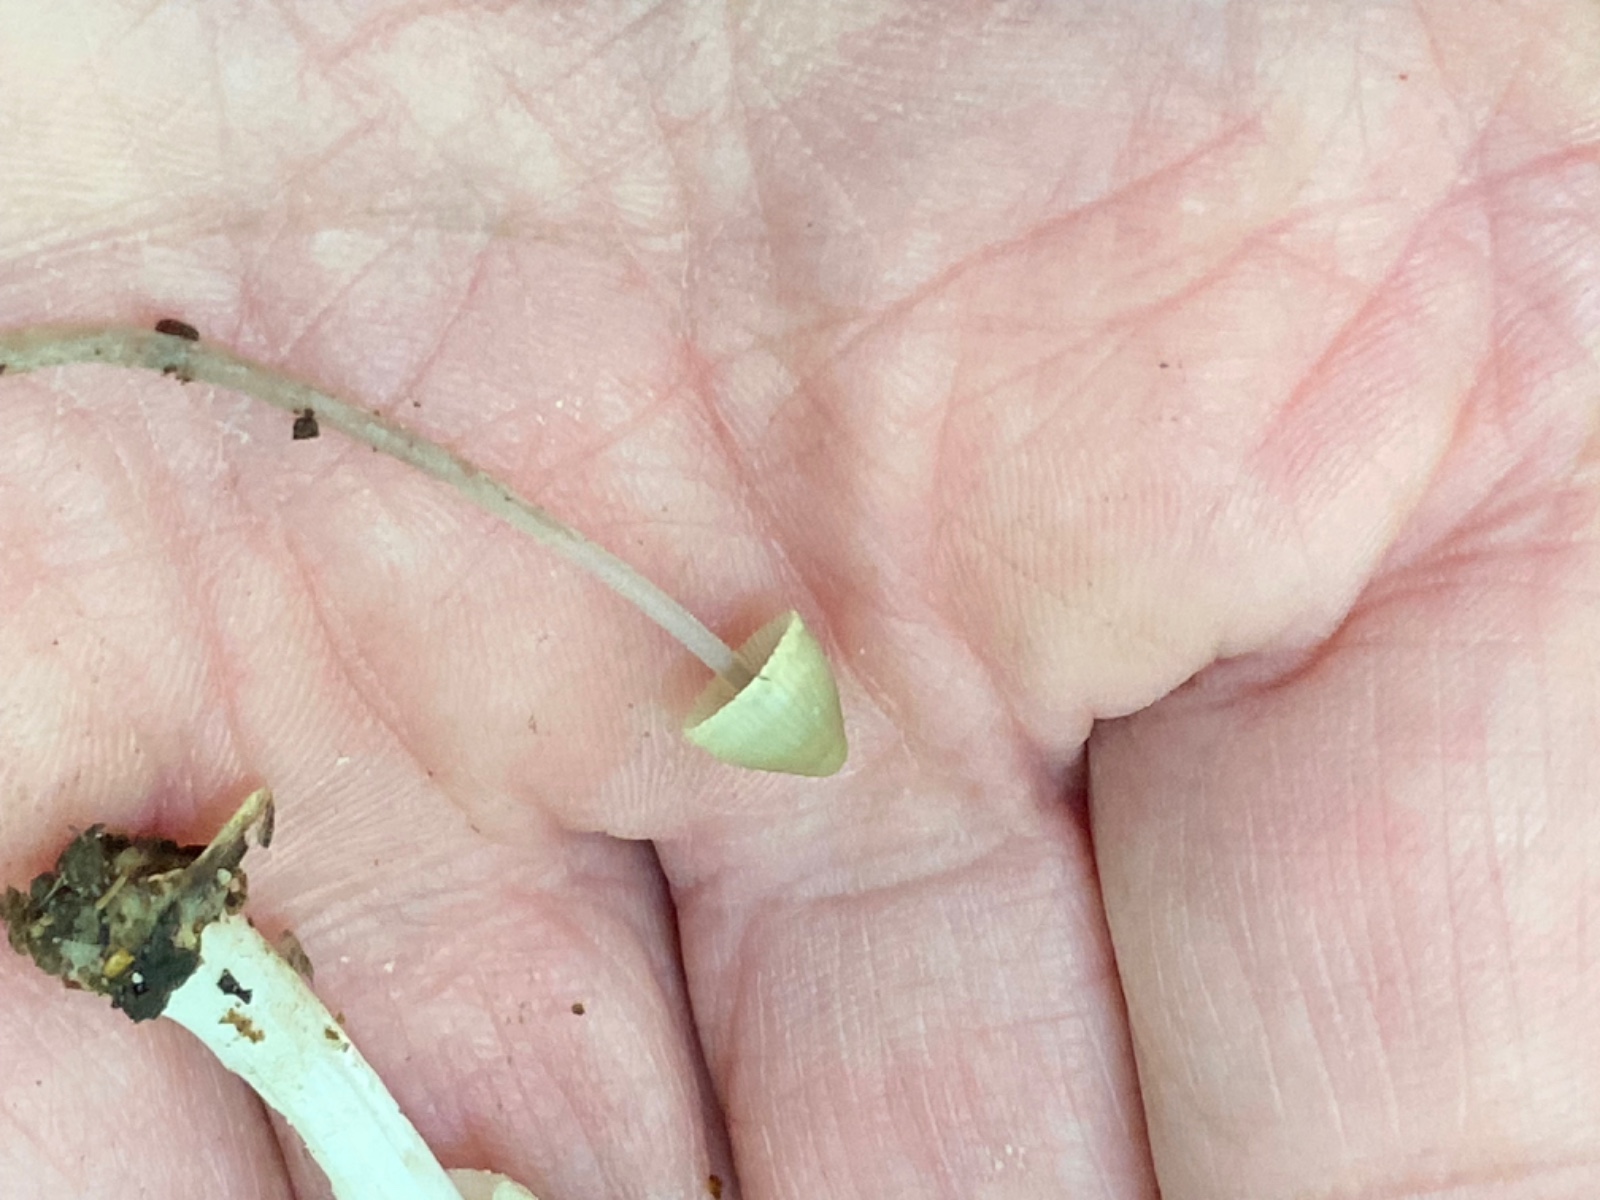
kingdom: Fungi
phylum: Basidiomycota
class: Agaricomycetes
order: Agaricales
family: Mycenaceae
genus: Mycena
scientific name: Mycena
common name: huesvamp
